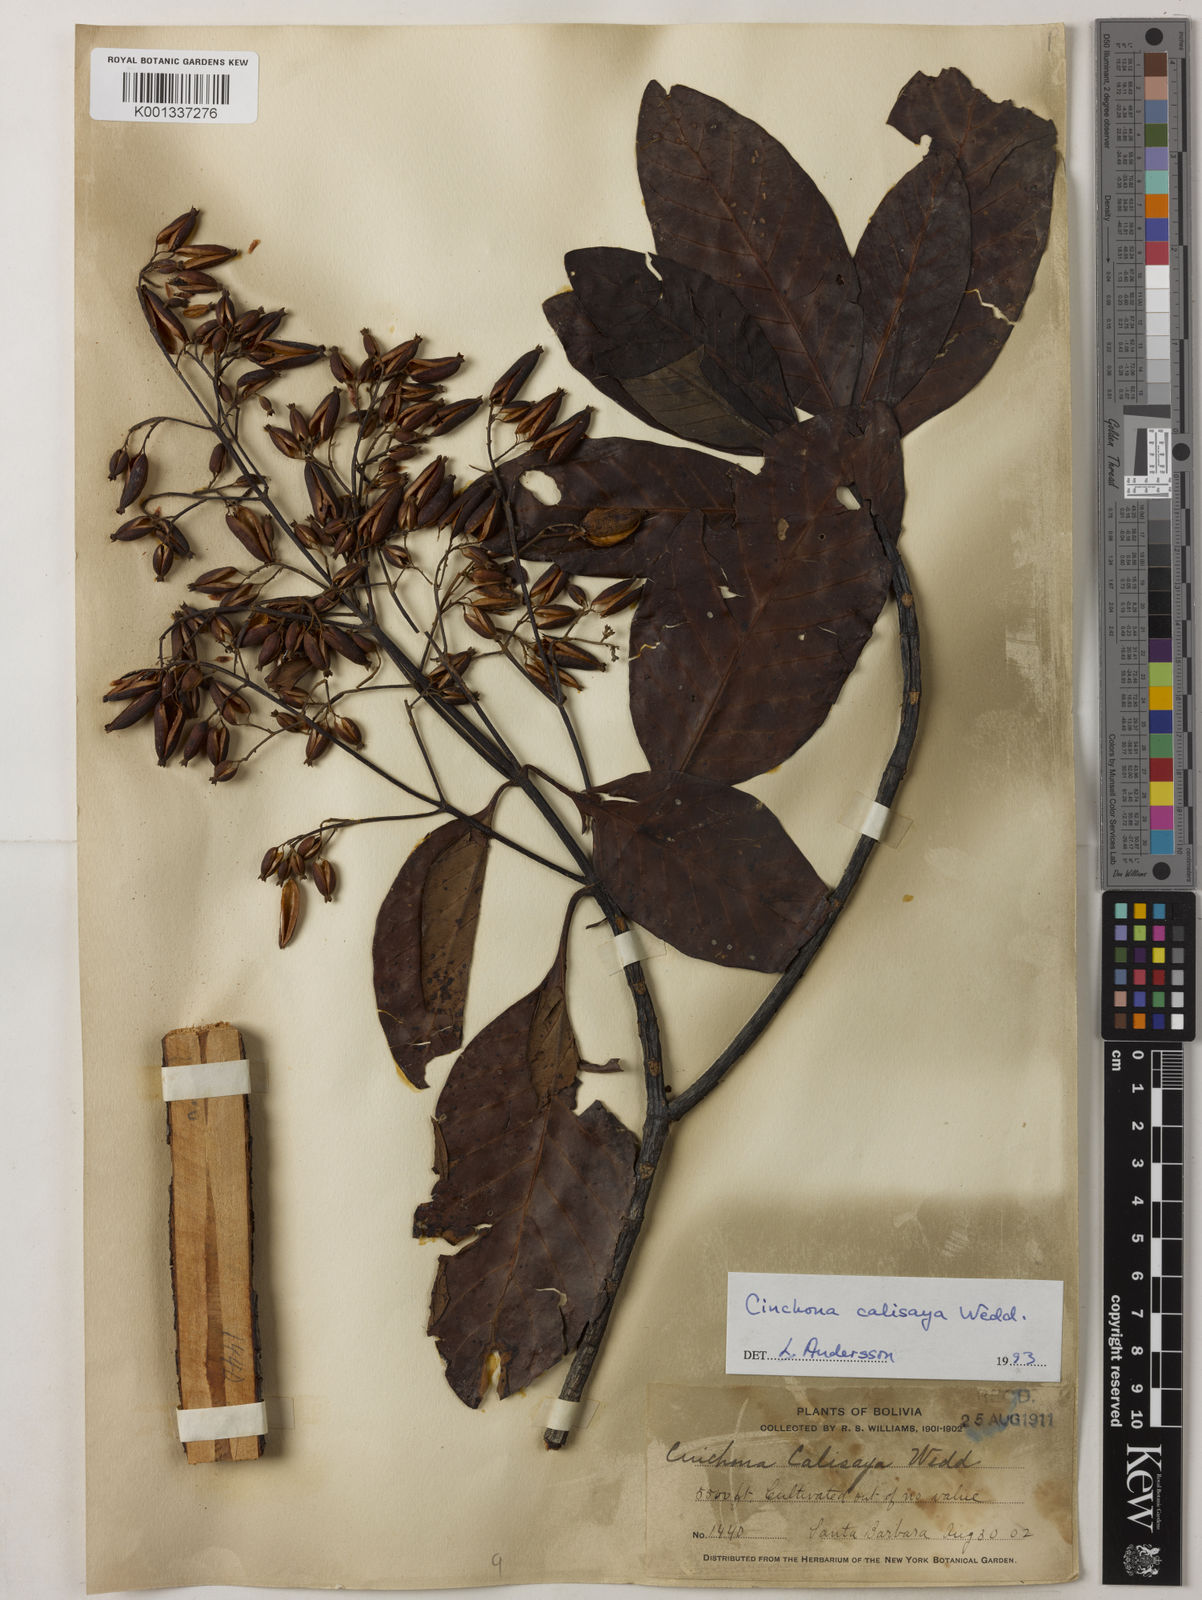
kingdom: Plantae
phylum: Tracheophyta
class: Magnoliopsida
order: Gentianales
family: Rubiaceae
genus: Cinchona
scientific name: Cinchona calisaya
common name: Ledgerbark
